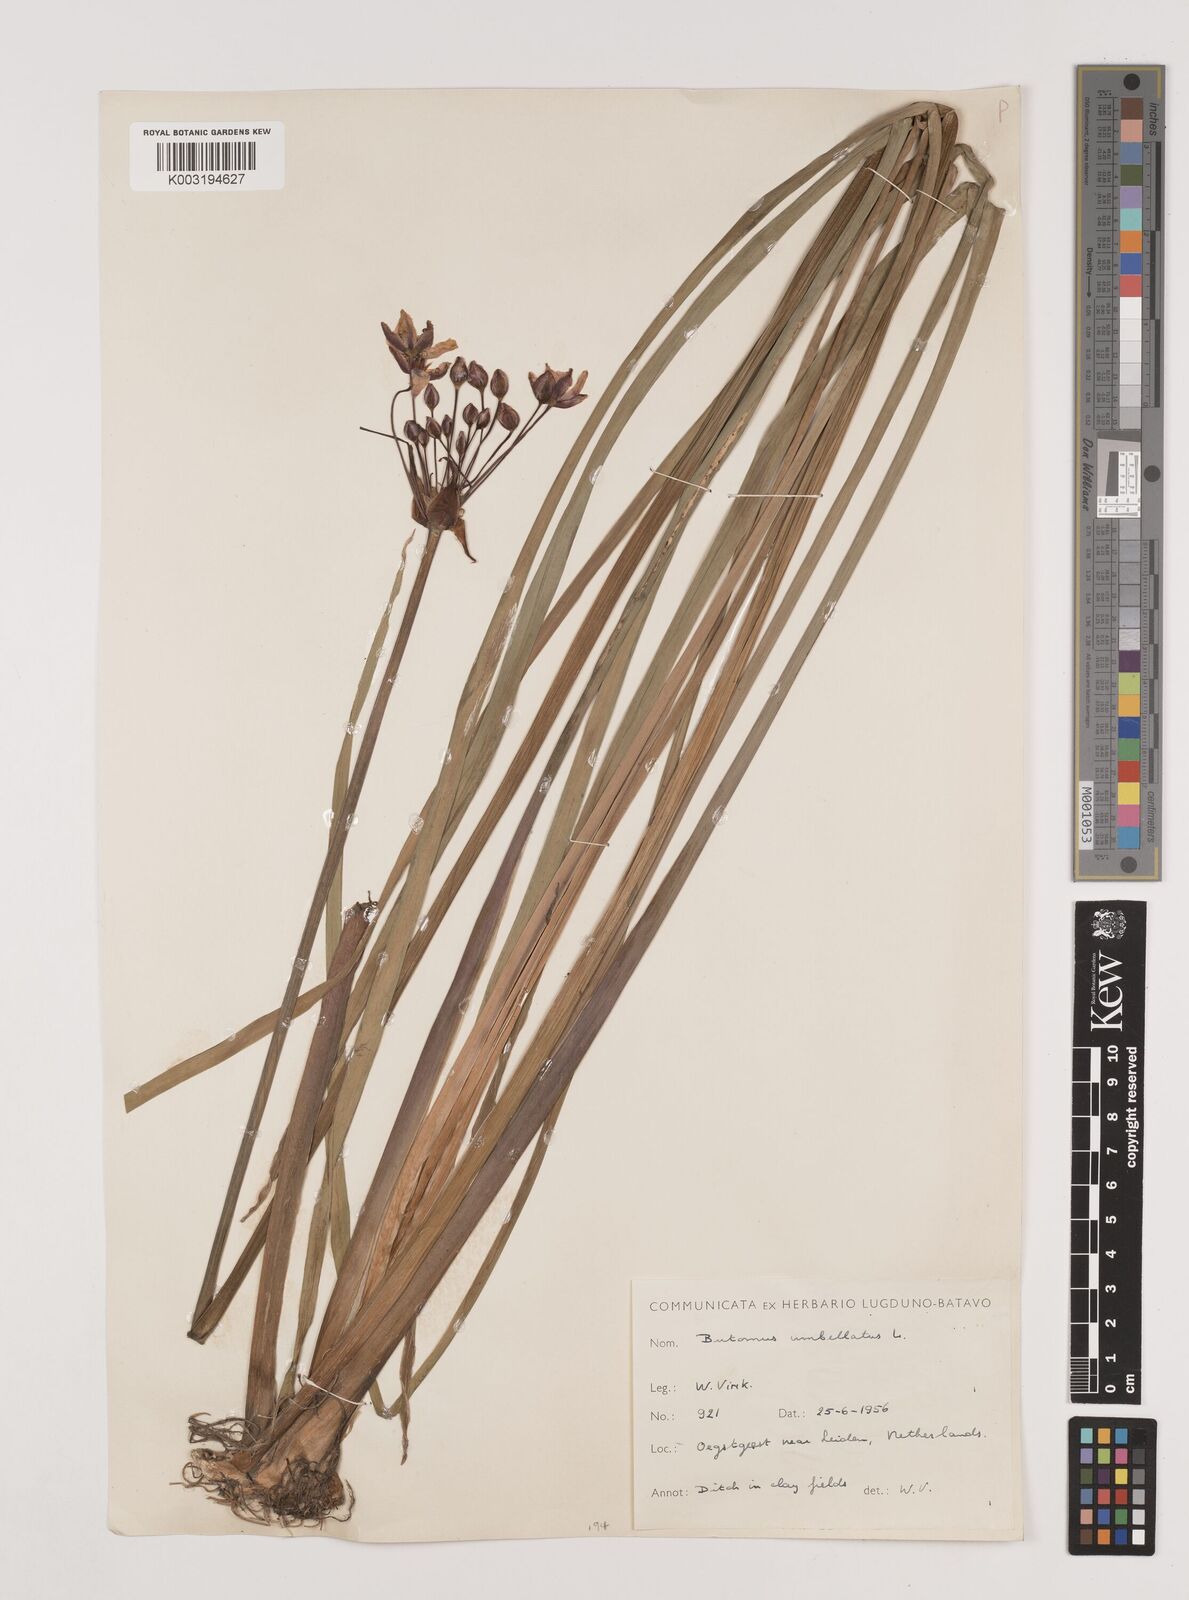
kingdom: Plantae
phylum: Tracheophyta
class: Liliopsida
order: Alismatales
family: Butomaceae
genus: Butomus
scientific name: Butomus umbellatus
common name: Flowering-rush
